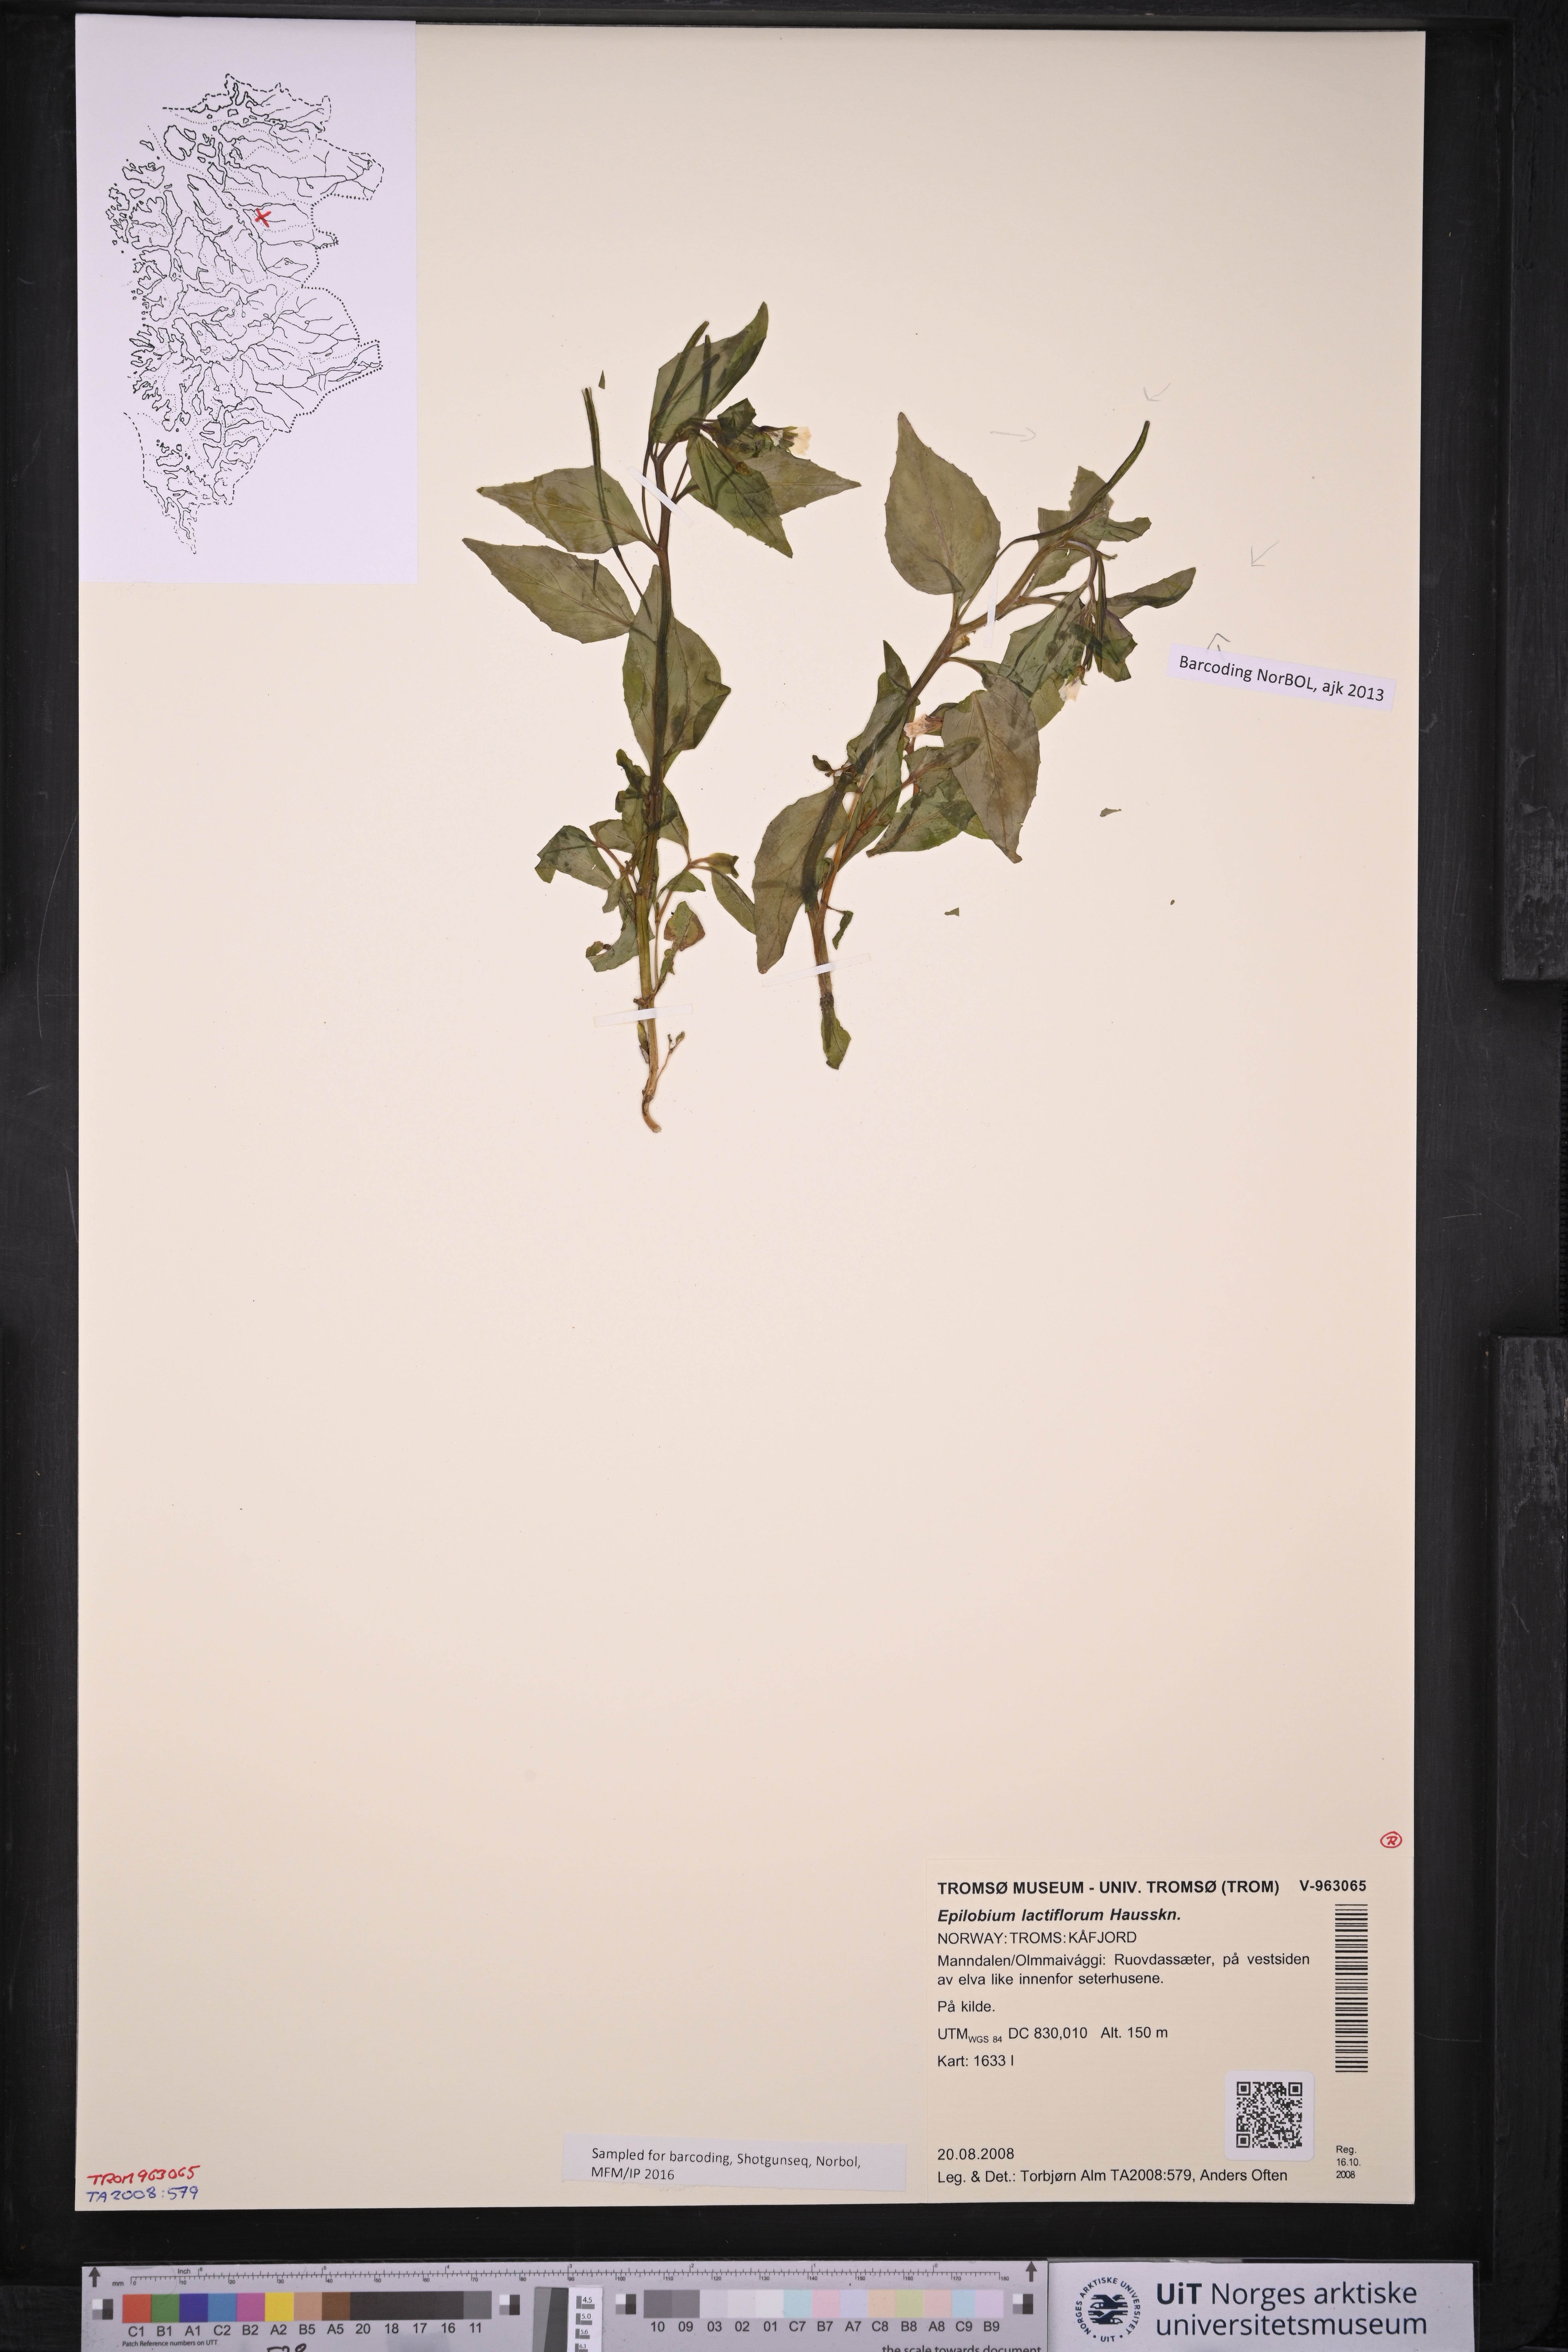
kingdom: Plantae
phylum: Tracheophyta
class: Magnoliopsida
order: Myrtales
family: Onagraceae
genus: Epilobium
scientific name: Epilobium lactiflorum
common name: Milkflower willowherb
